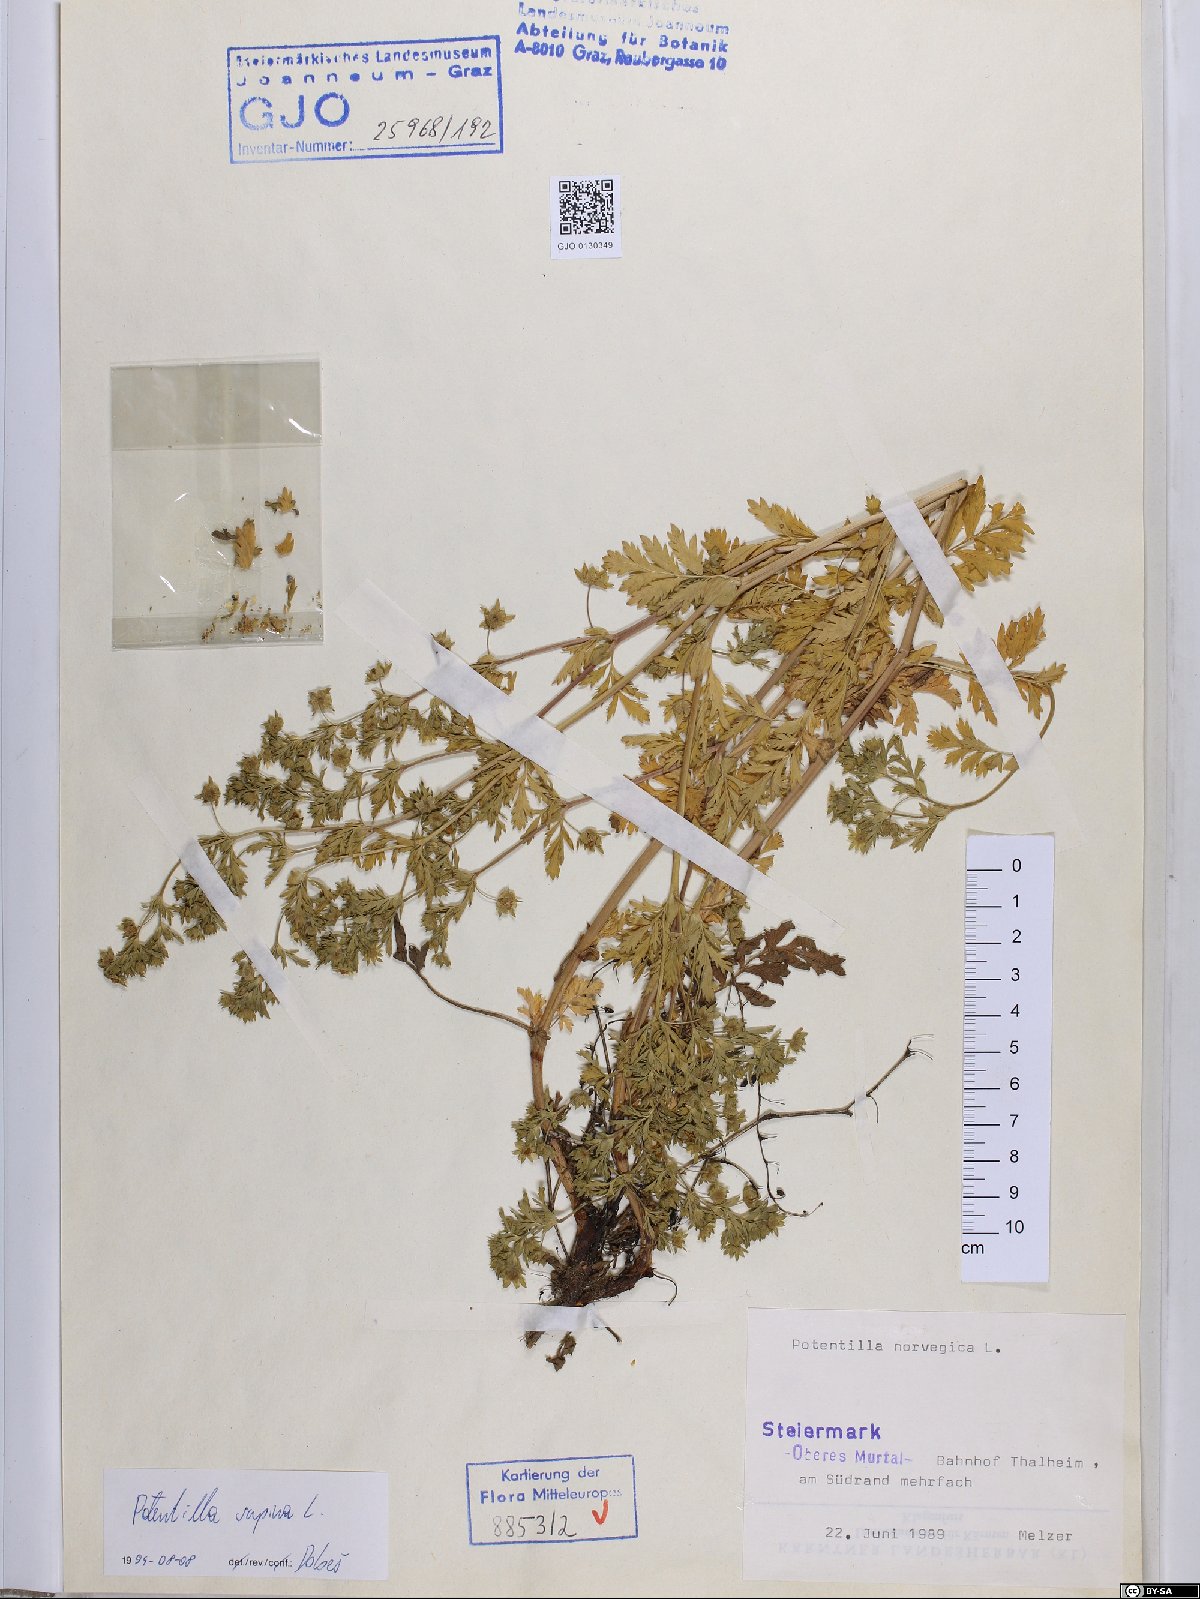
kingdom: Plantae
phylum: Tracheophyta
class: Magnoliopsida
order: Rosales
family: Rosaceae
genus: Potentilla
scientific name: Potentilla supina
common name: Prostrate cinquefoil
